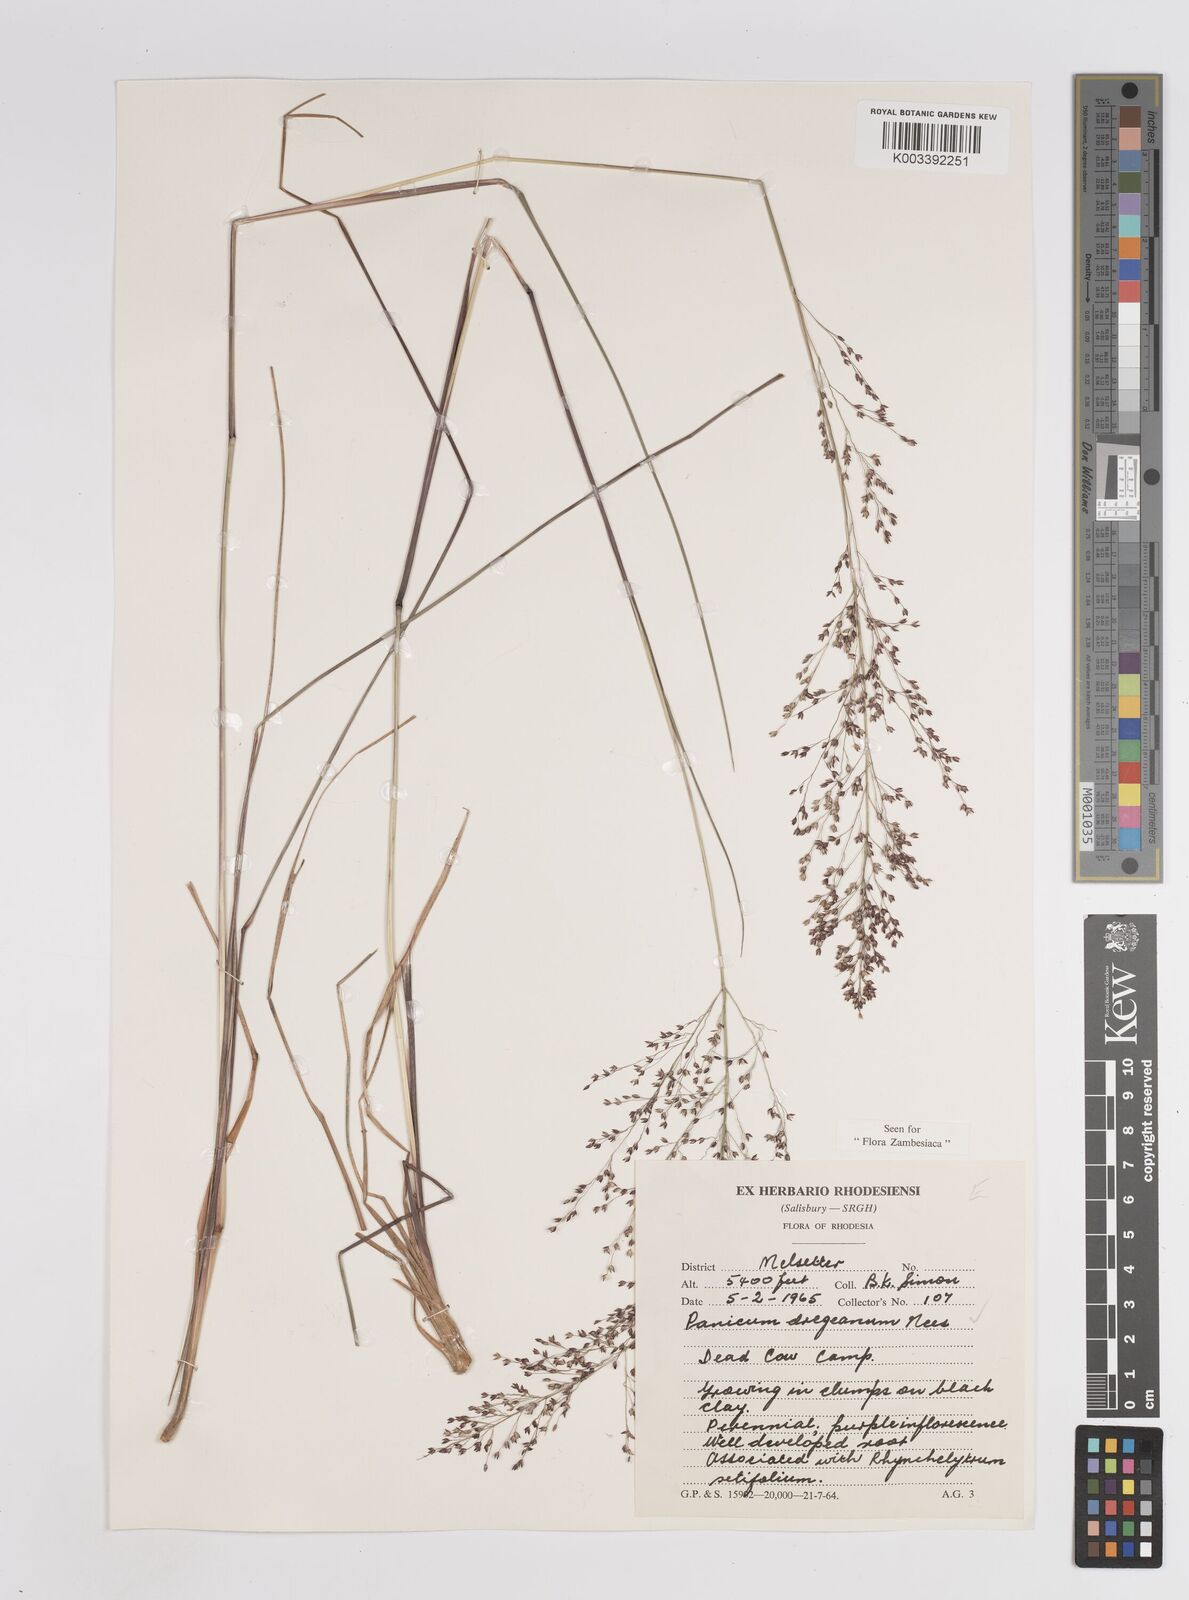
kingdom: Plantae
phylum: Tracheophyta
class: Liliopsida
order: Poales
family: Poaceae
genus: Panicum
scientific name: Panicum dregeanum
